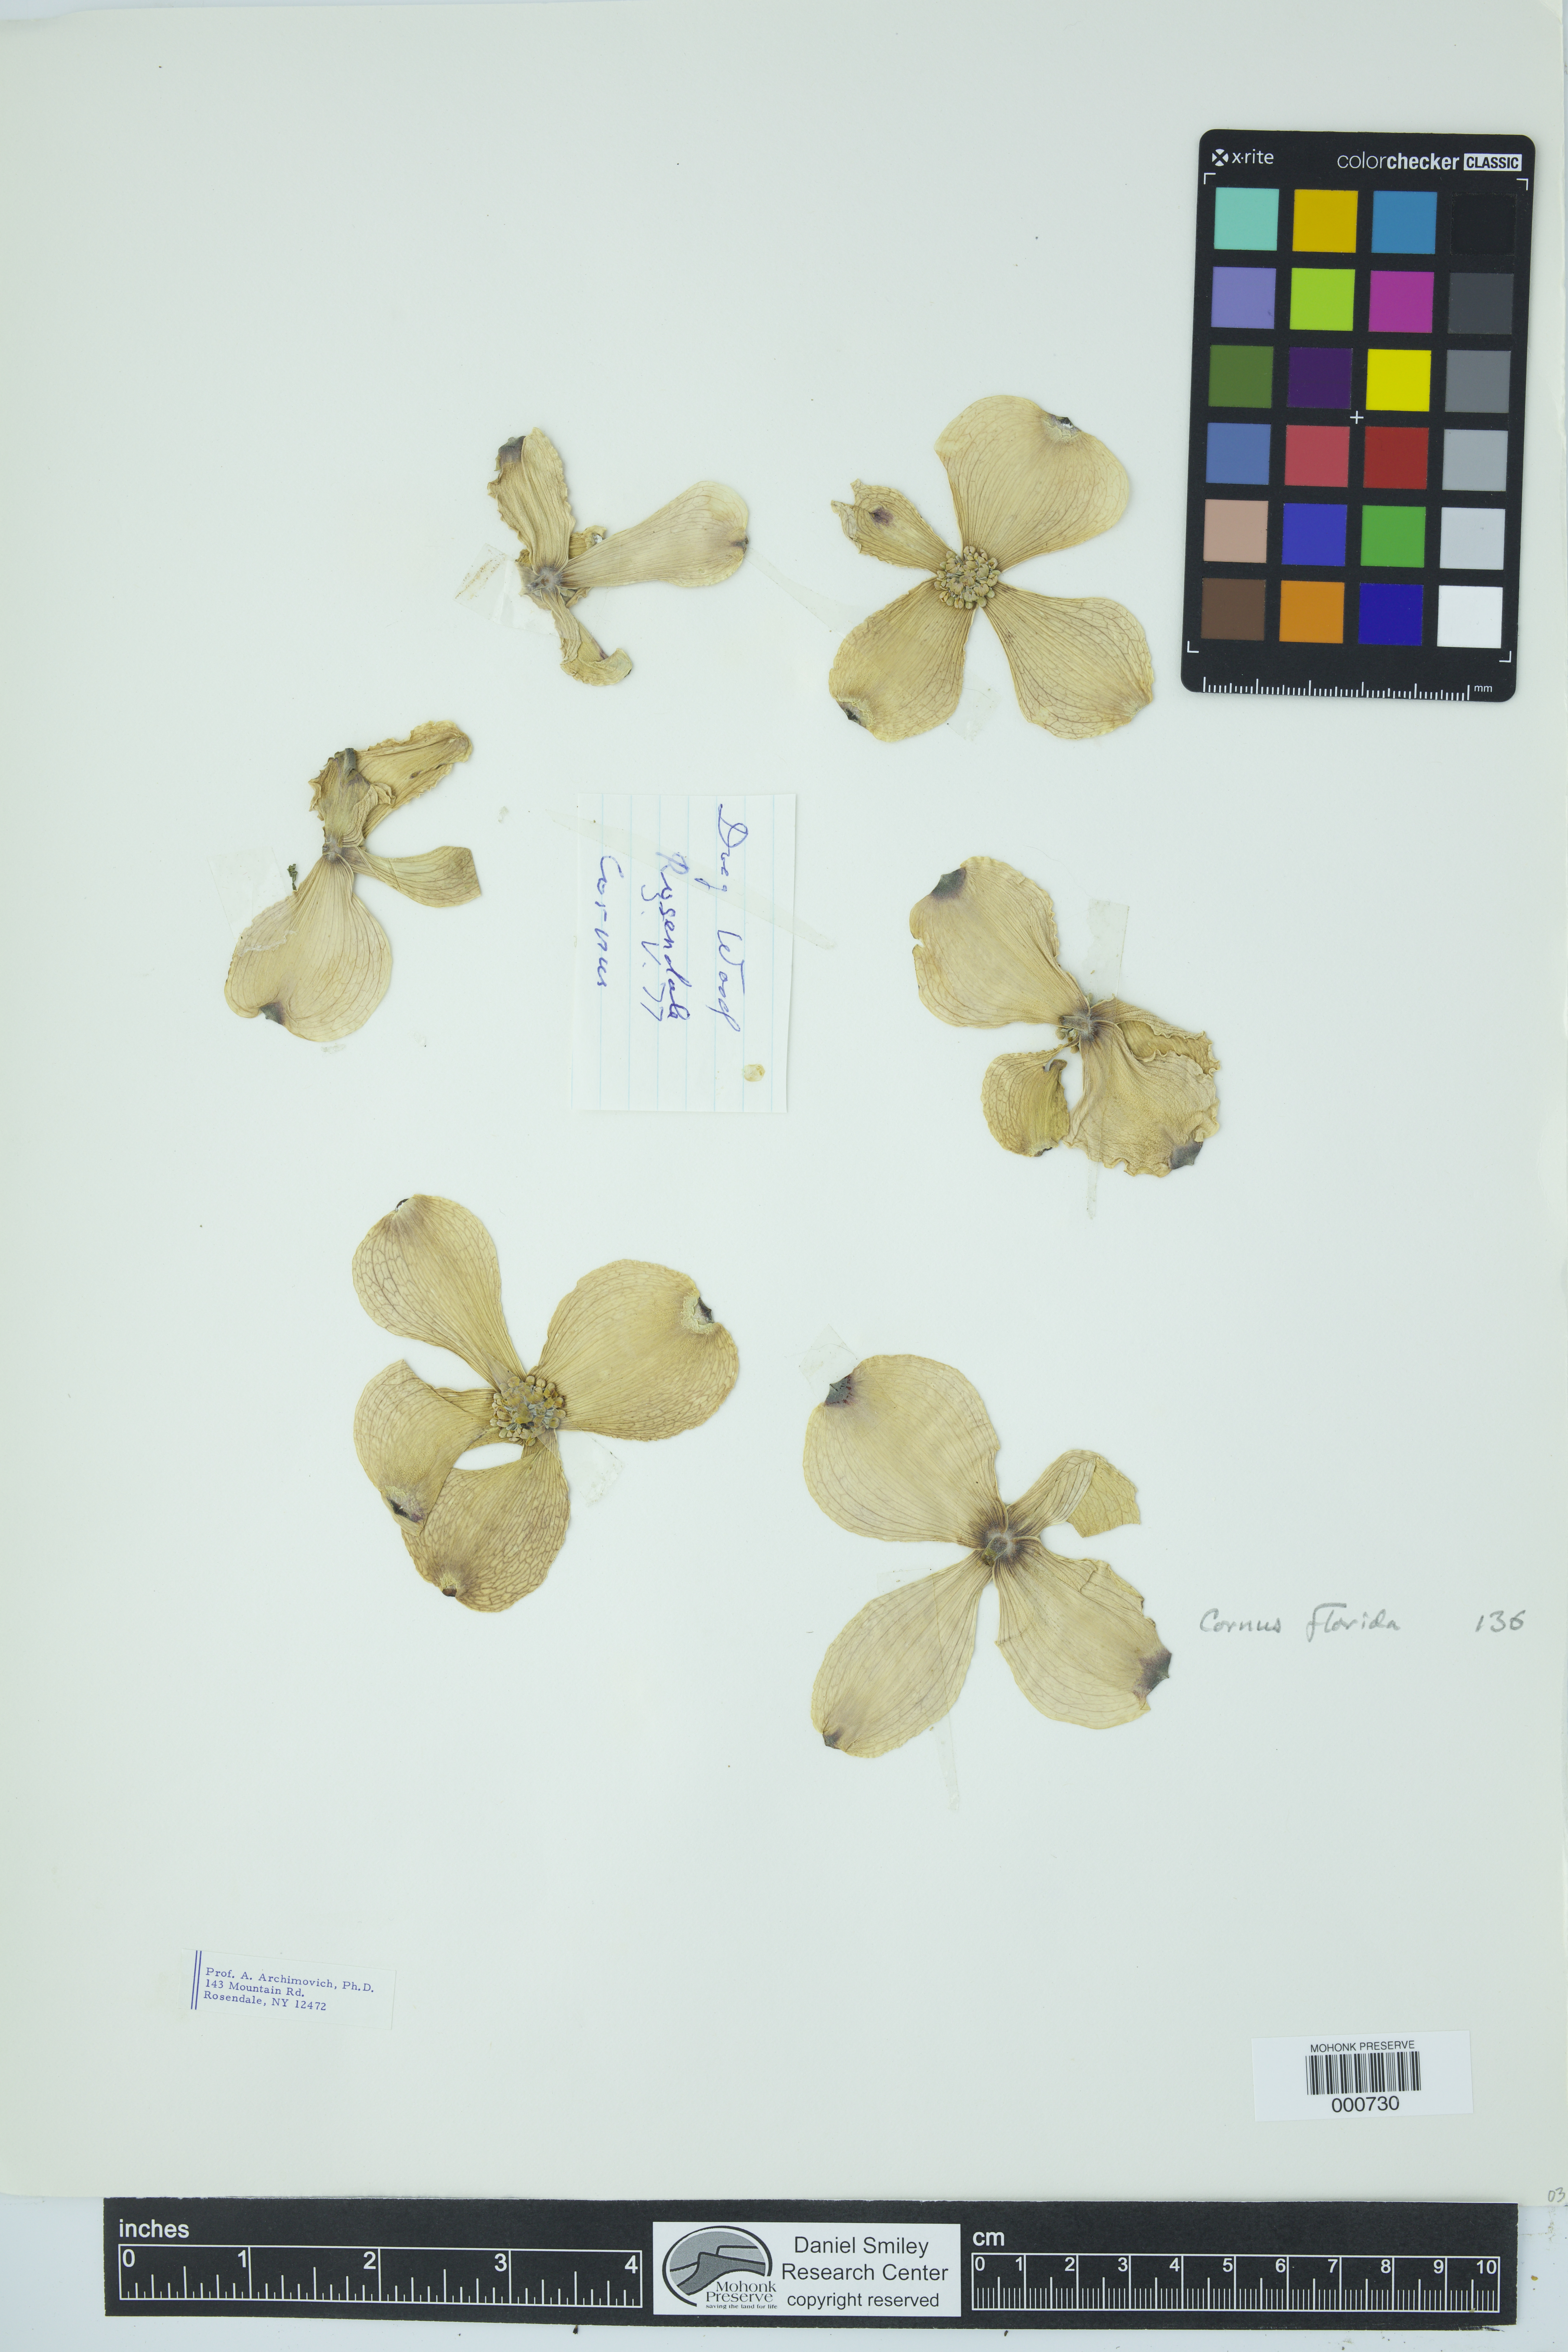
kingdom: Plantae
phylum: Tracheophyta
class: Magnoliopsida
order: Cornales
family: Cornaceae
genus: Cornus
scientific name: Cornus florida
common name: Flowering dogwood
